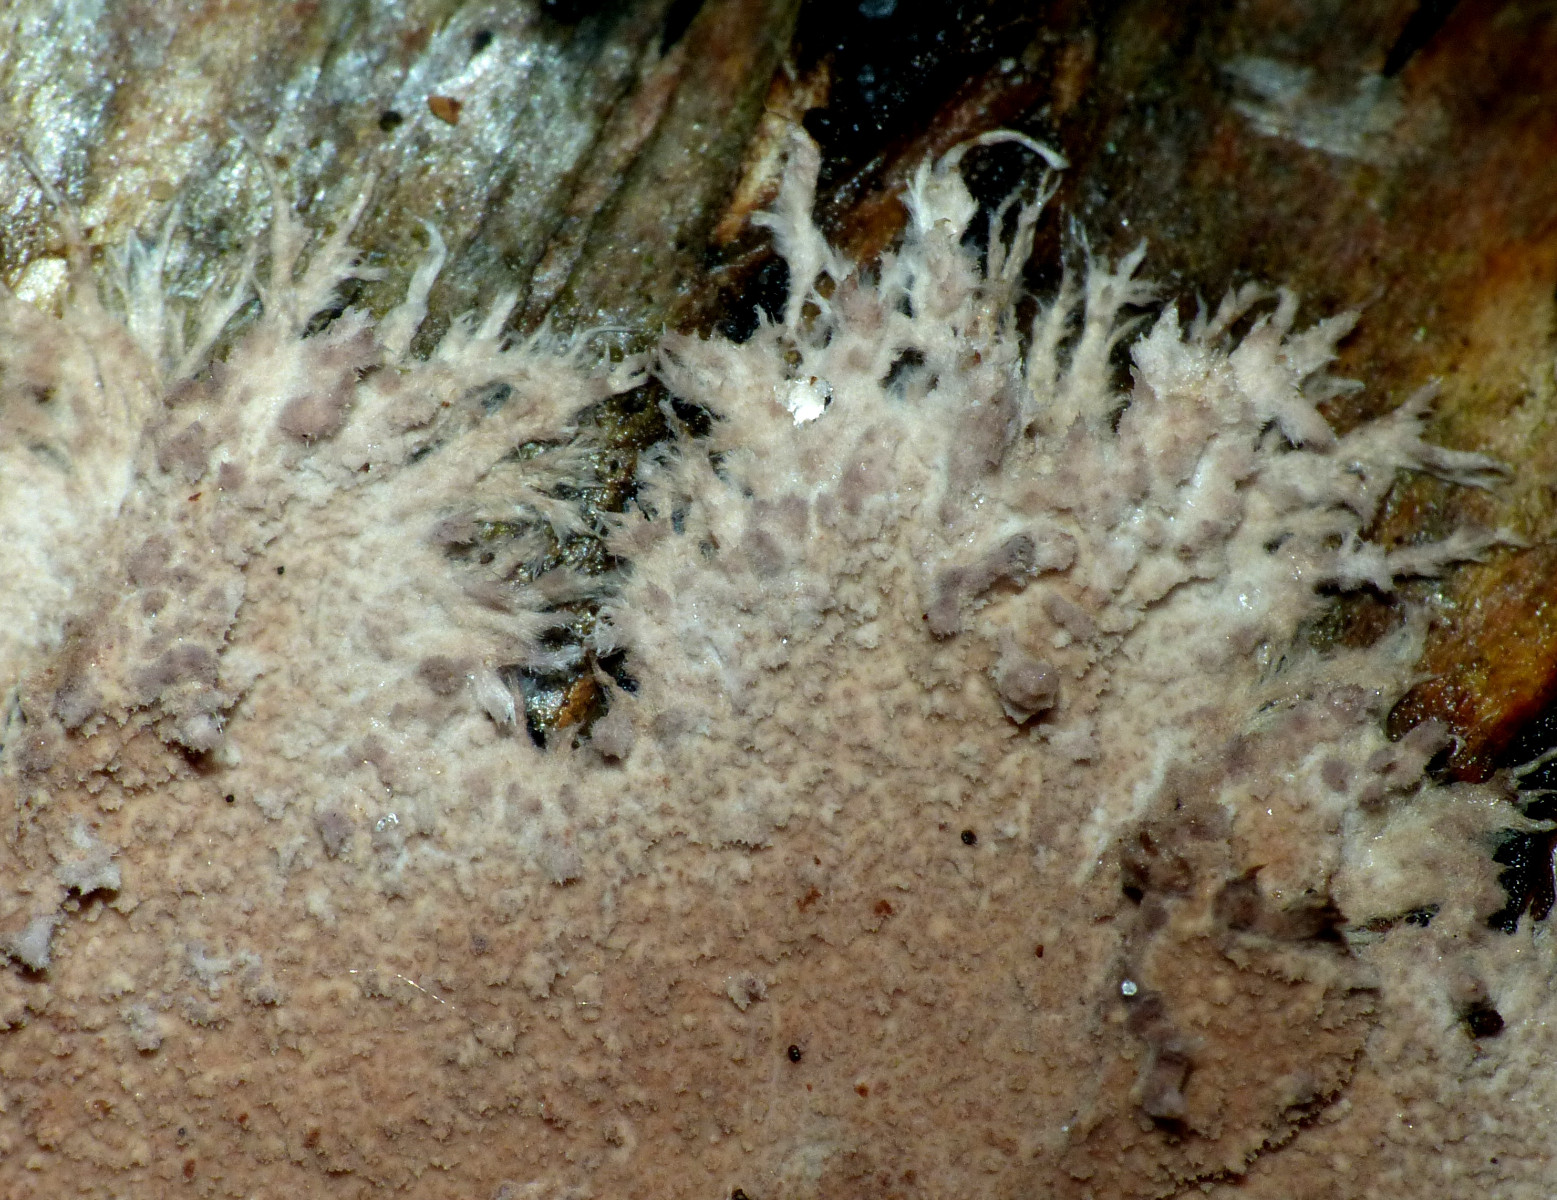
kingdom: Fungi
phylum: Basidiomycota
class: Agaricomycetes
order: Polyporales
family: Steccherinaceae
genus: Steccherinum
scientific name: Steccherinum fimbriatum
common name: trådet skønpig
